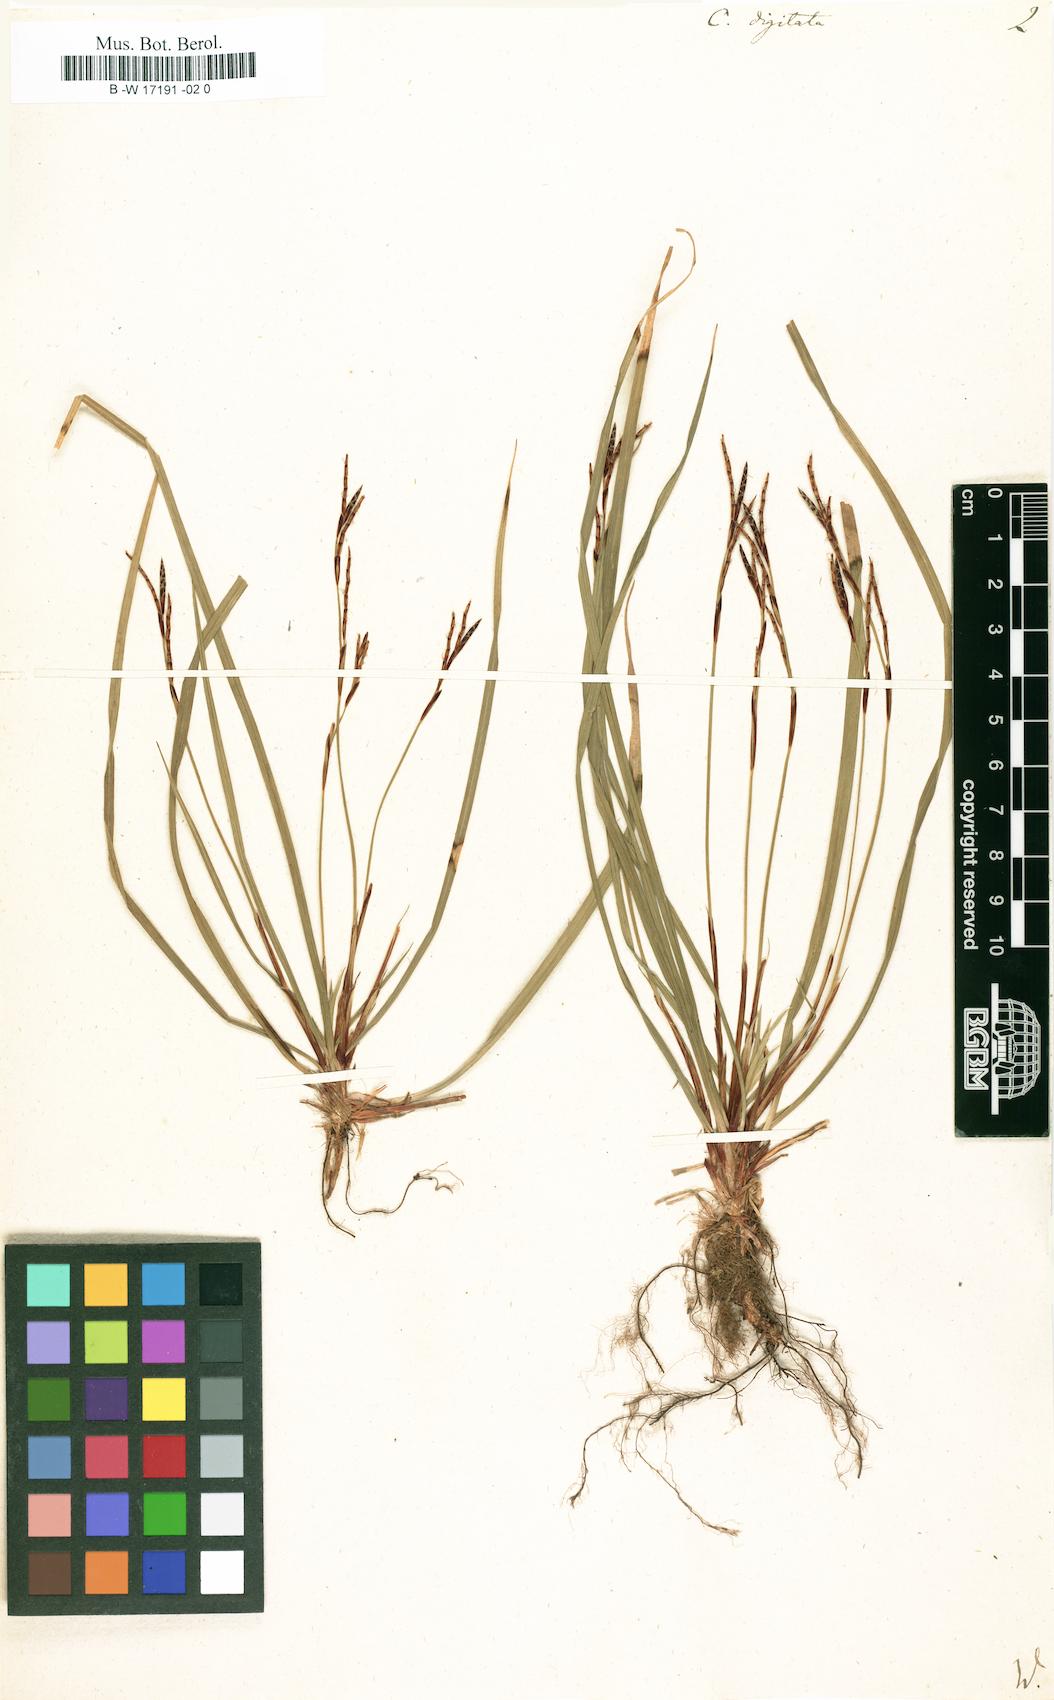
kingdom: Plantae
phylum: Tracheophyta
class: Liliopsida
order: Poales
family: Cyperaceae
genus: Carex
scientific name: Carex digitata
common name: Fingered sedge
